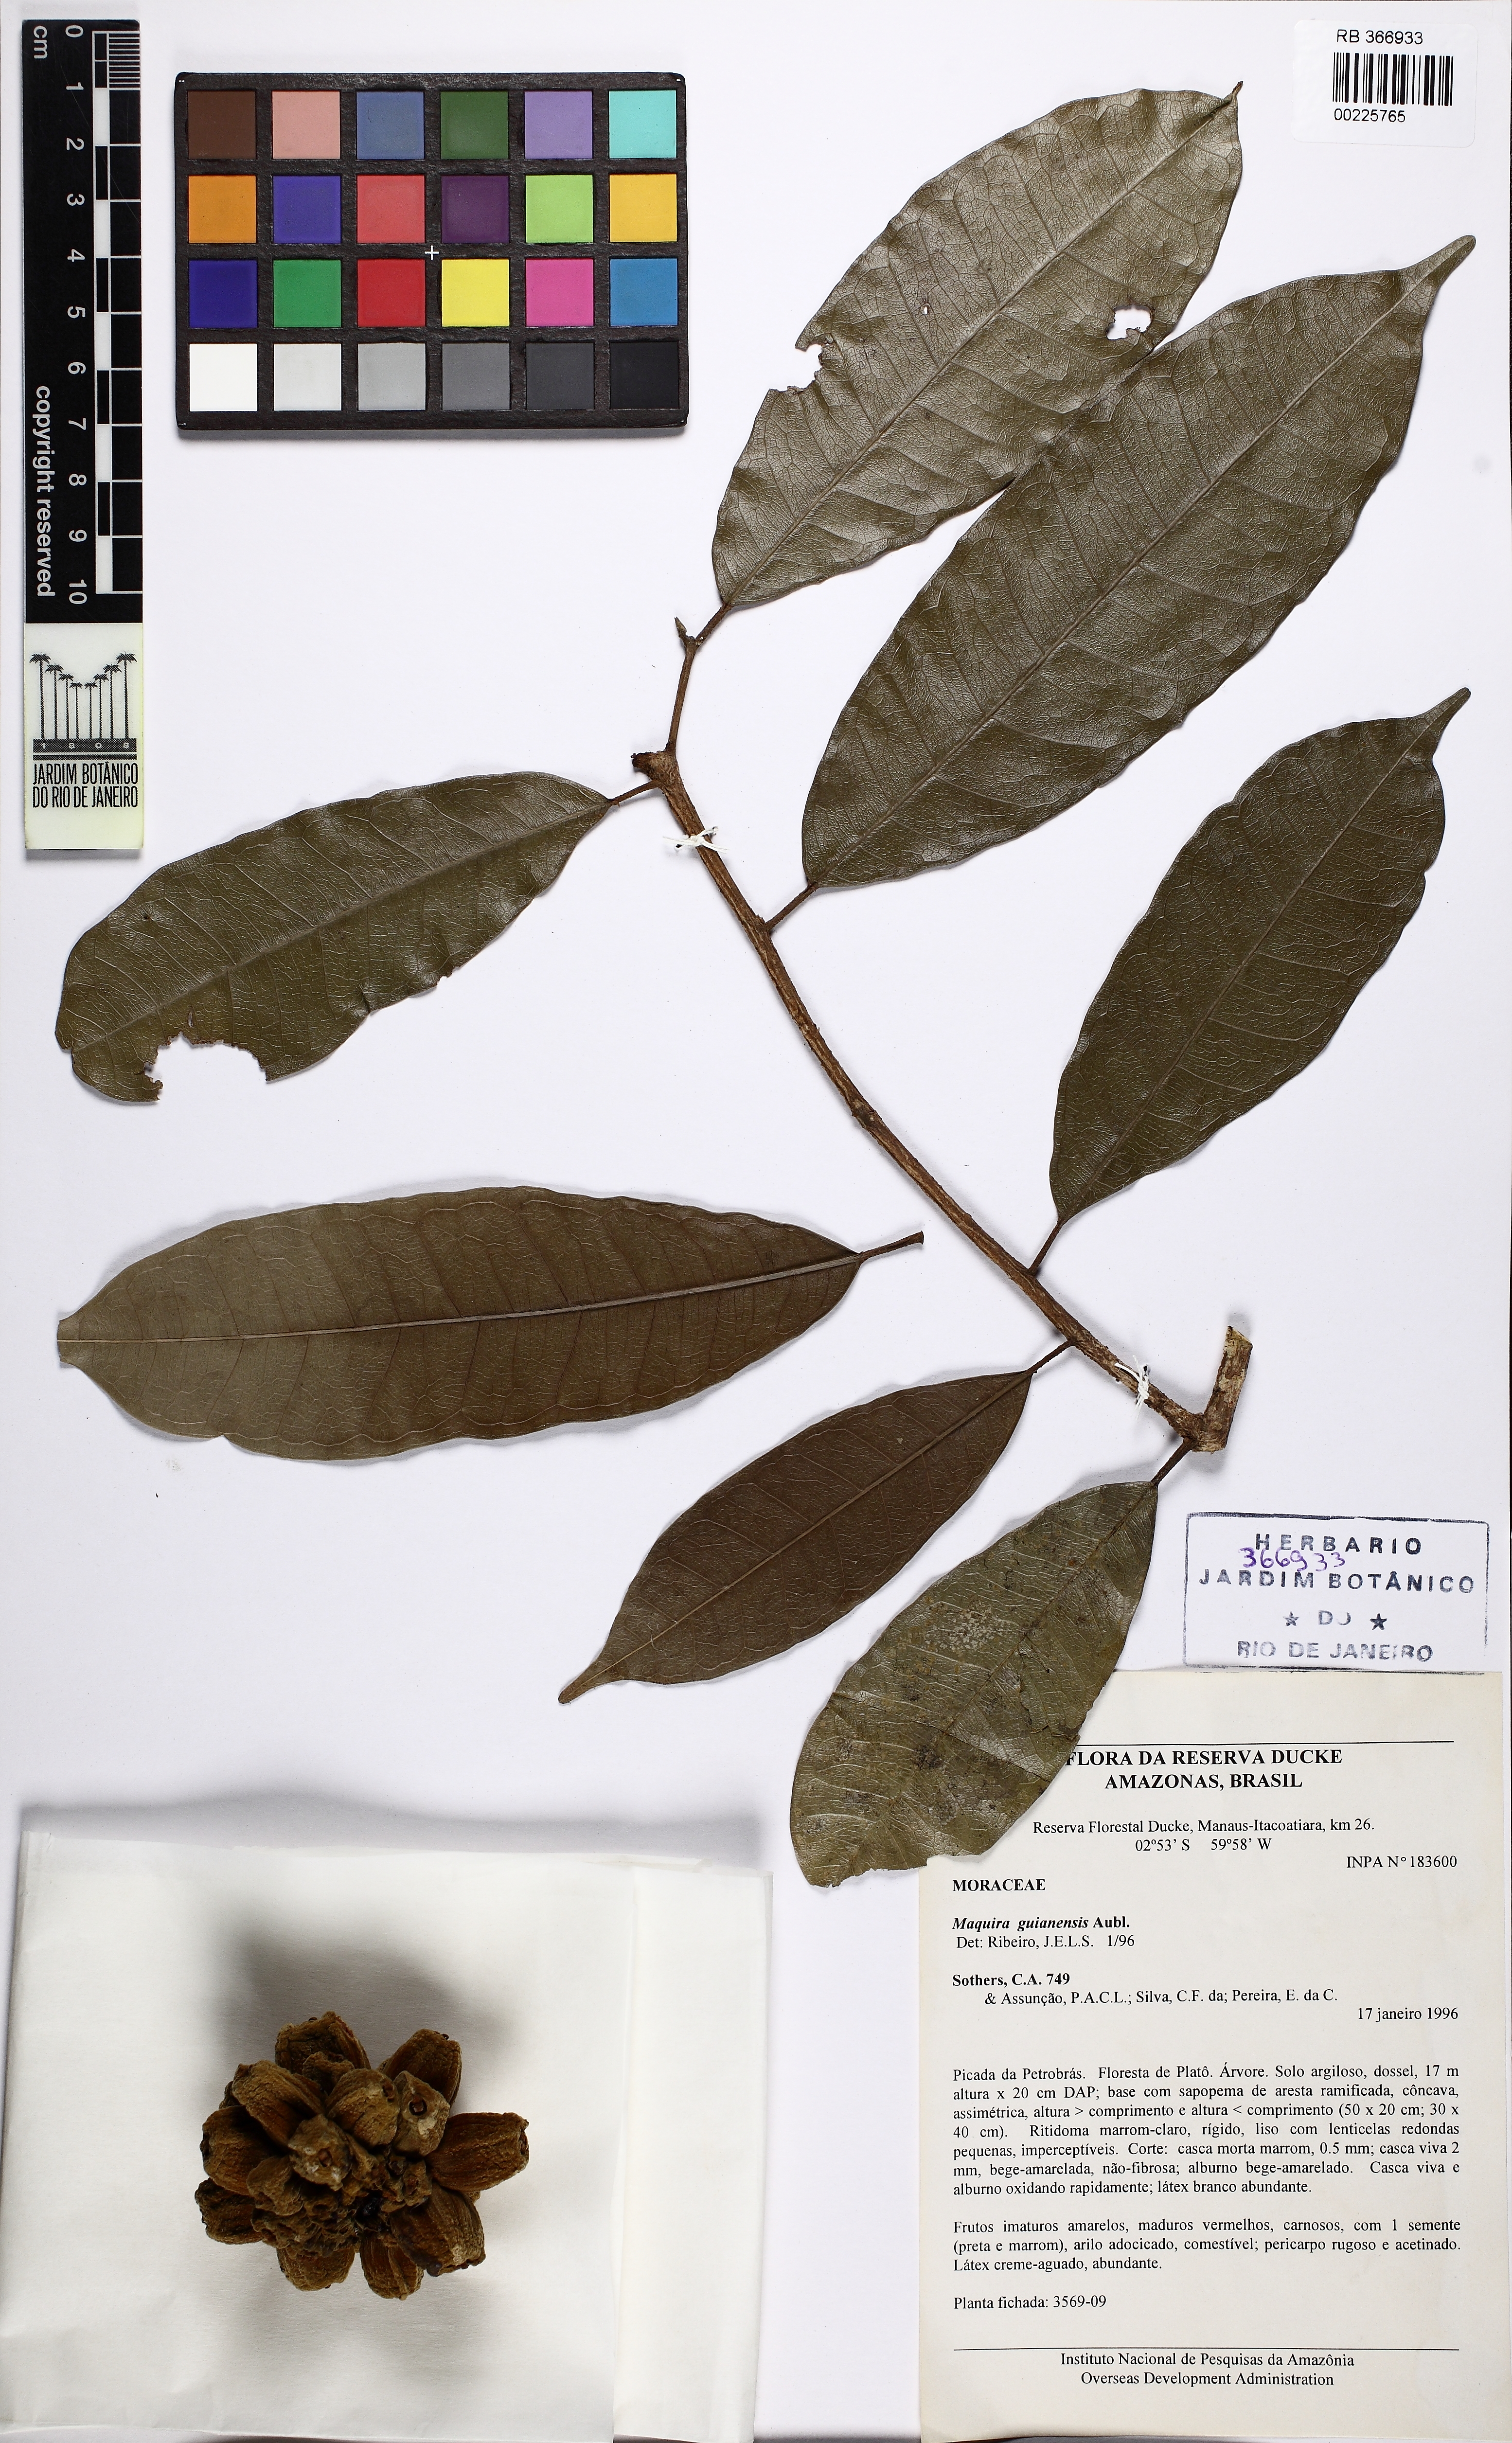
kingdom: Plantae
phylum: Tracheophyta
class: Magnoliopsida
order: Rosales
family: Moraceae
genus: Maquira
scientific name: Maquira guianensis
